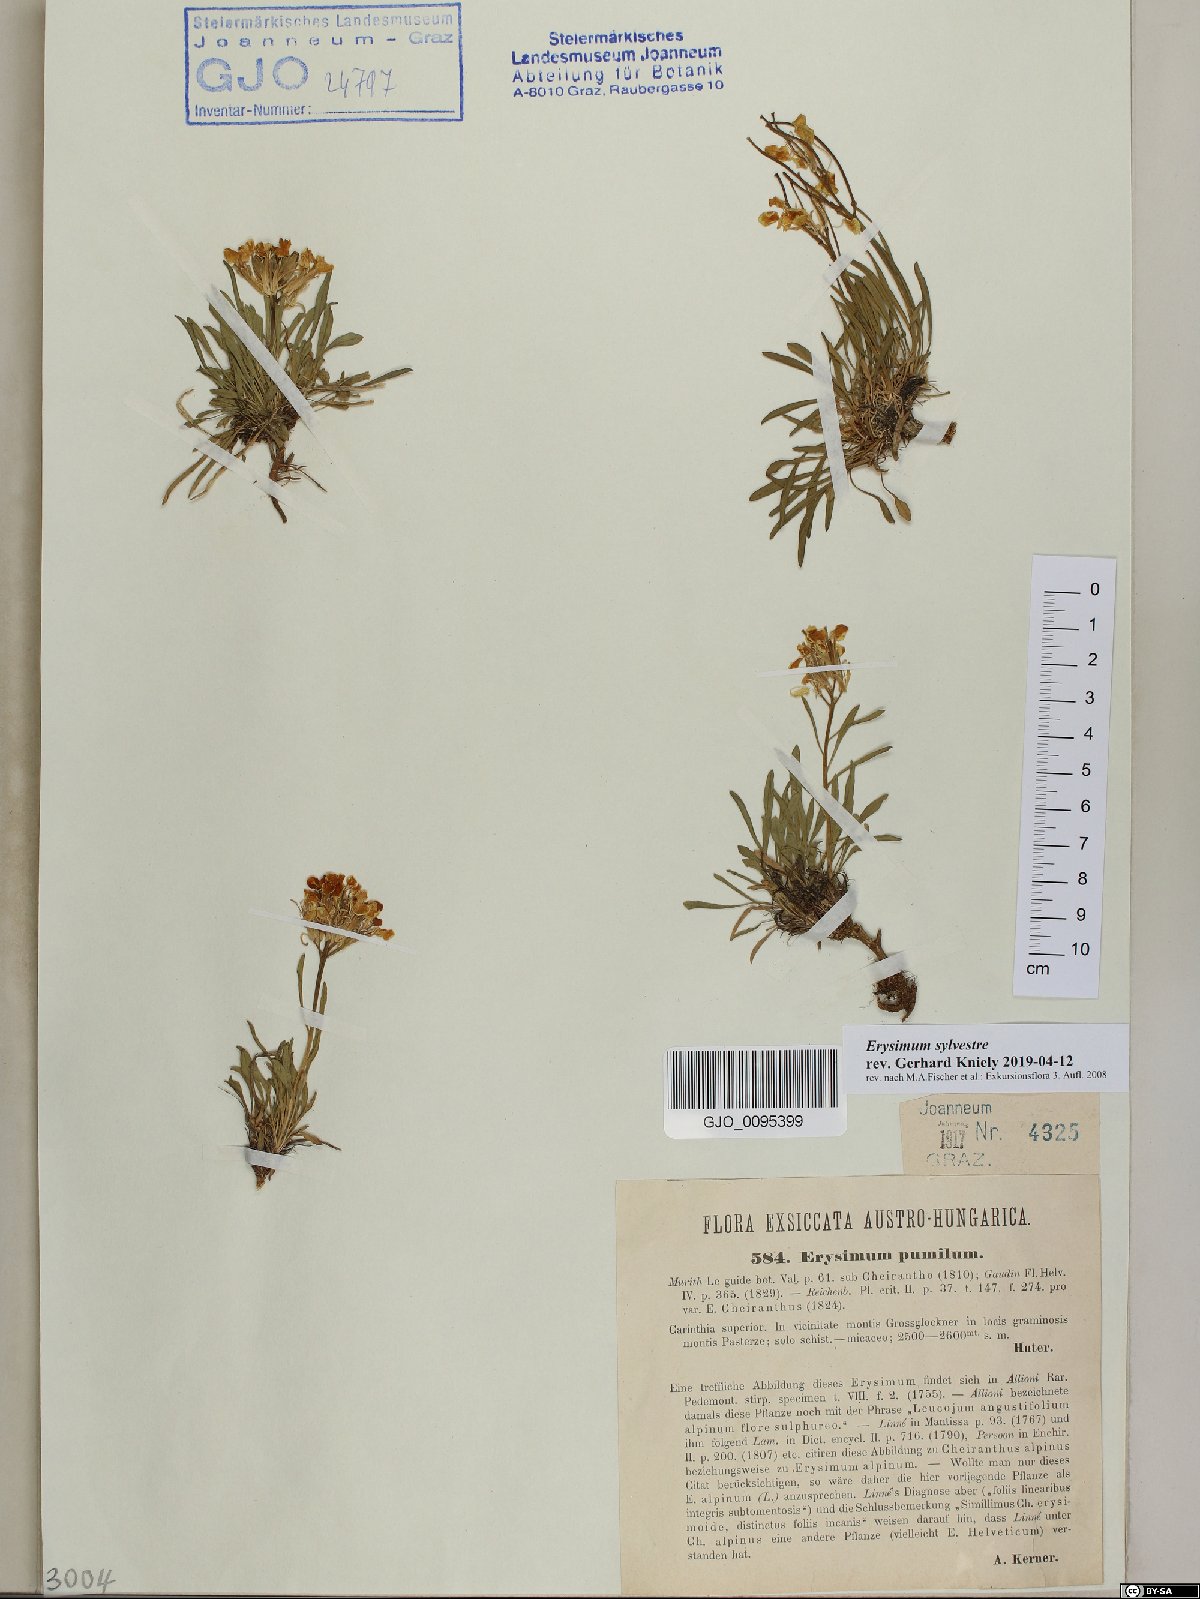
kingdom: Plantae
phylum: Tracheophyta
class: Magnoliopsida
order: Brassicales
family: Brassicaceae
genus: Erysimum
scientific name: Erysimum sylvestre
